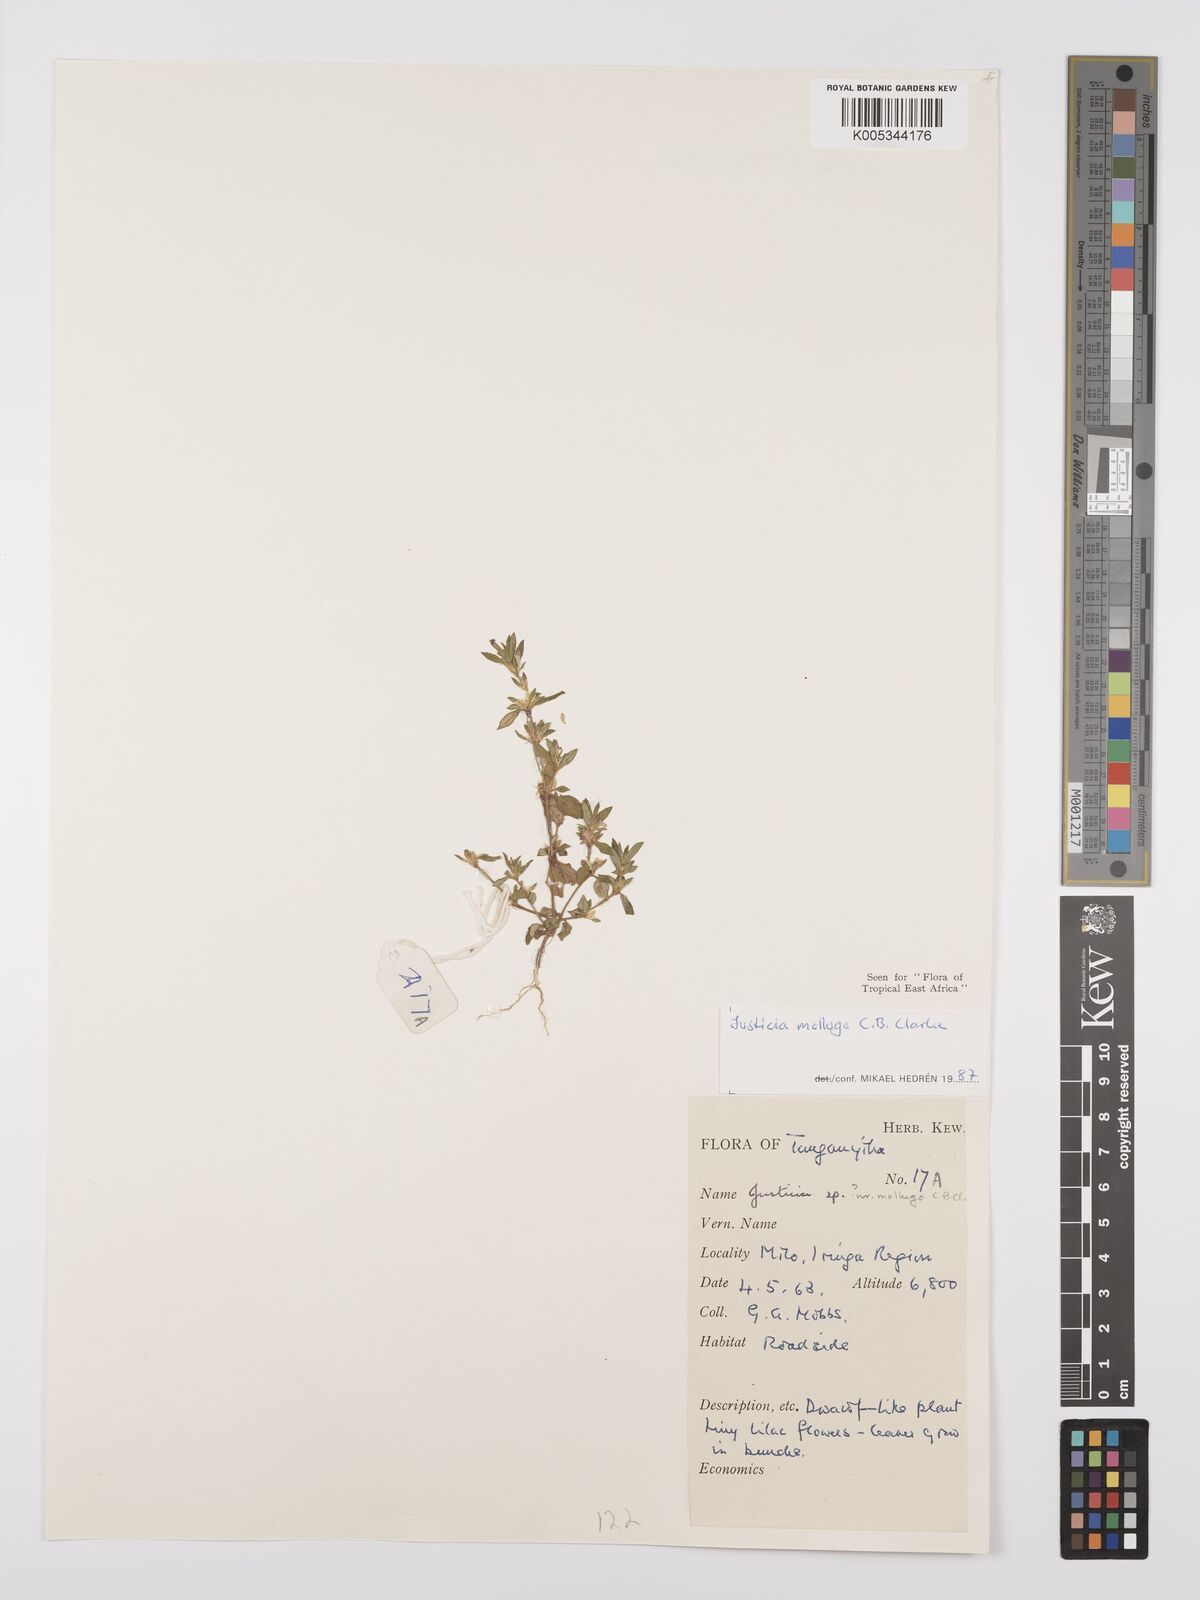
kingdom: Plantae
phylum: Tracheophyta
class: Magnoliopsida
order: Lamiales
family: Acanthaceae
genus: Justicia
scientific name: Justicia mollugo
